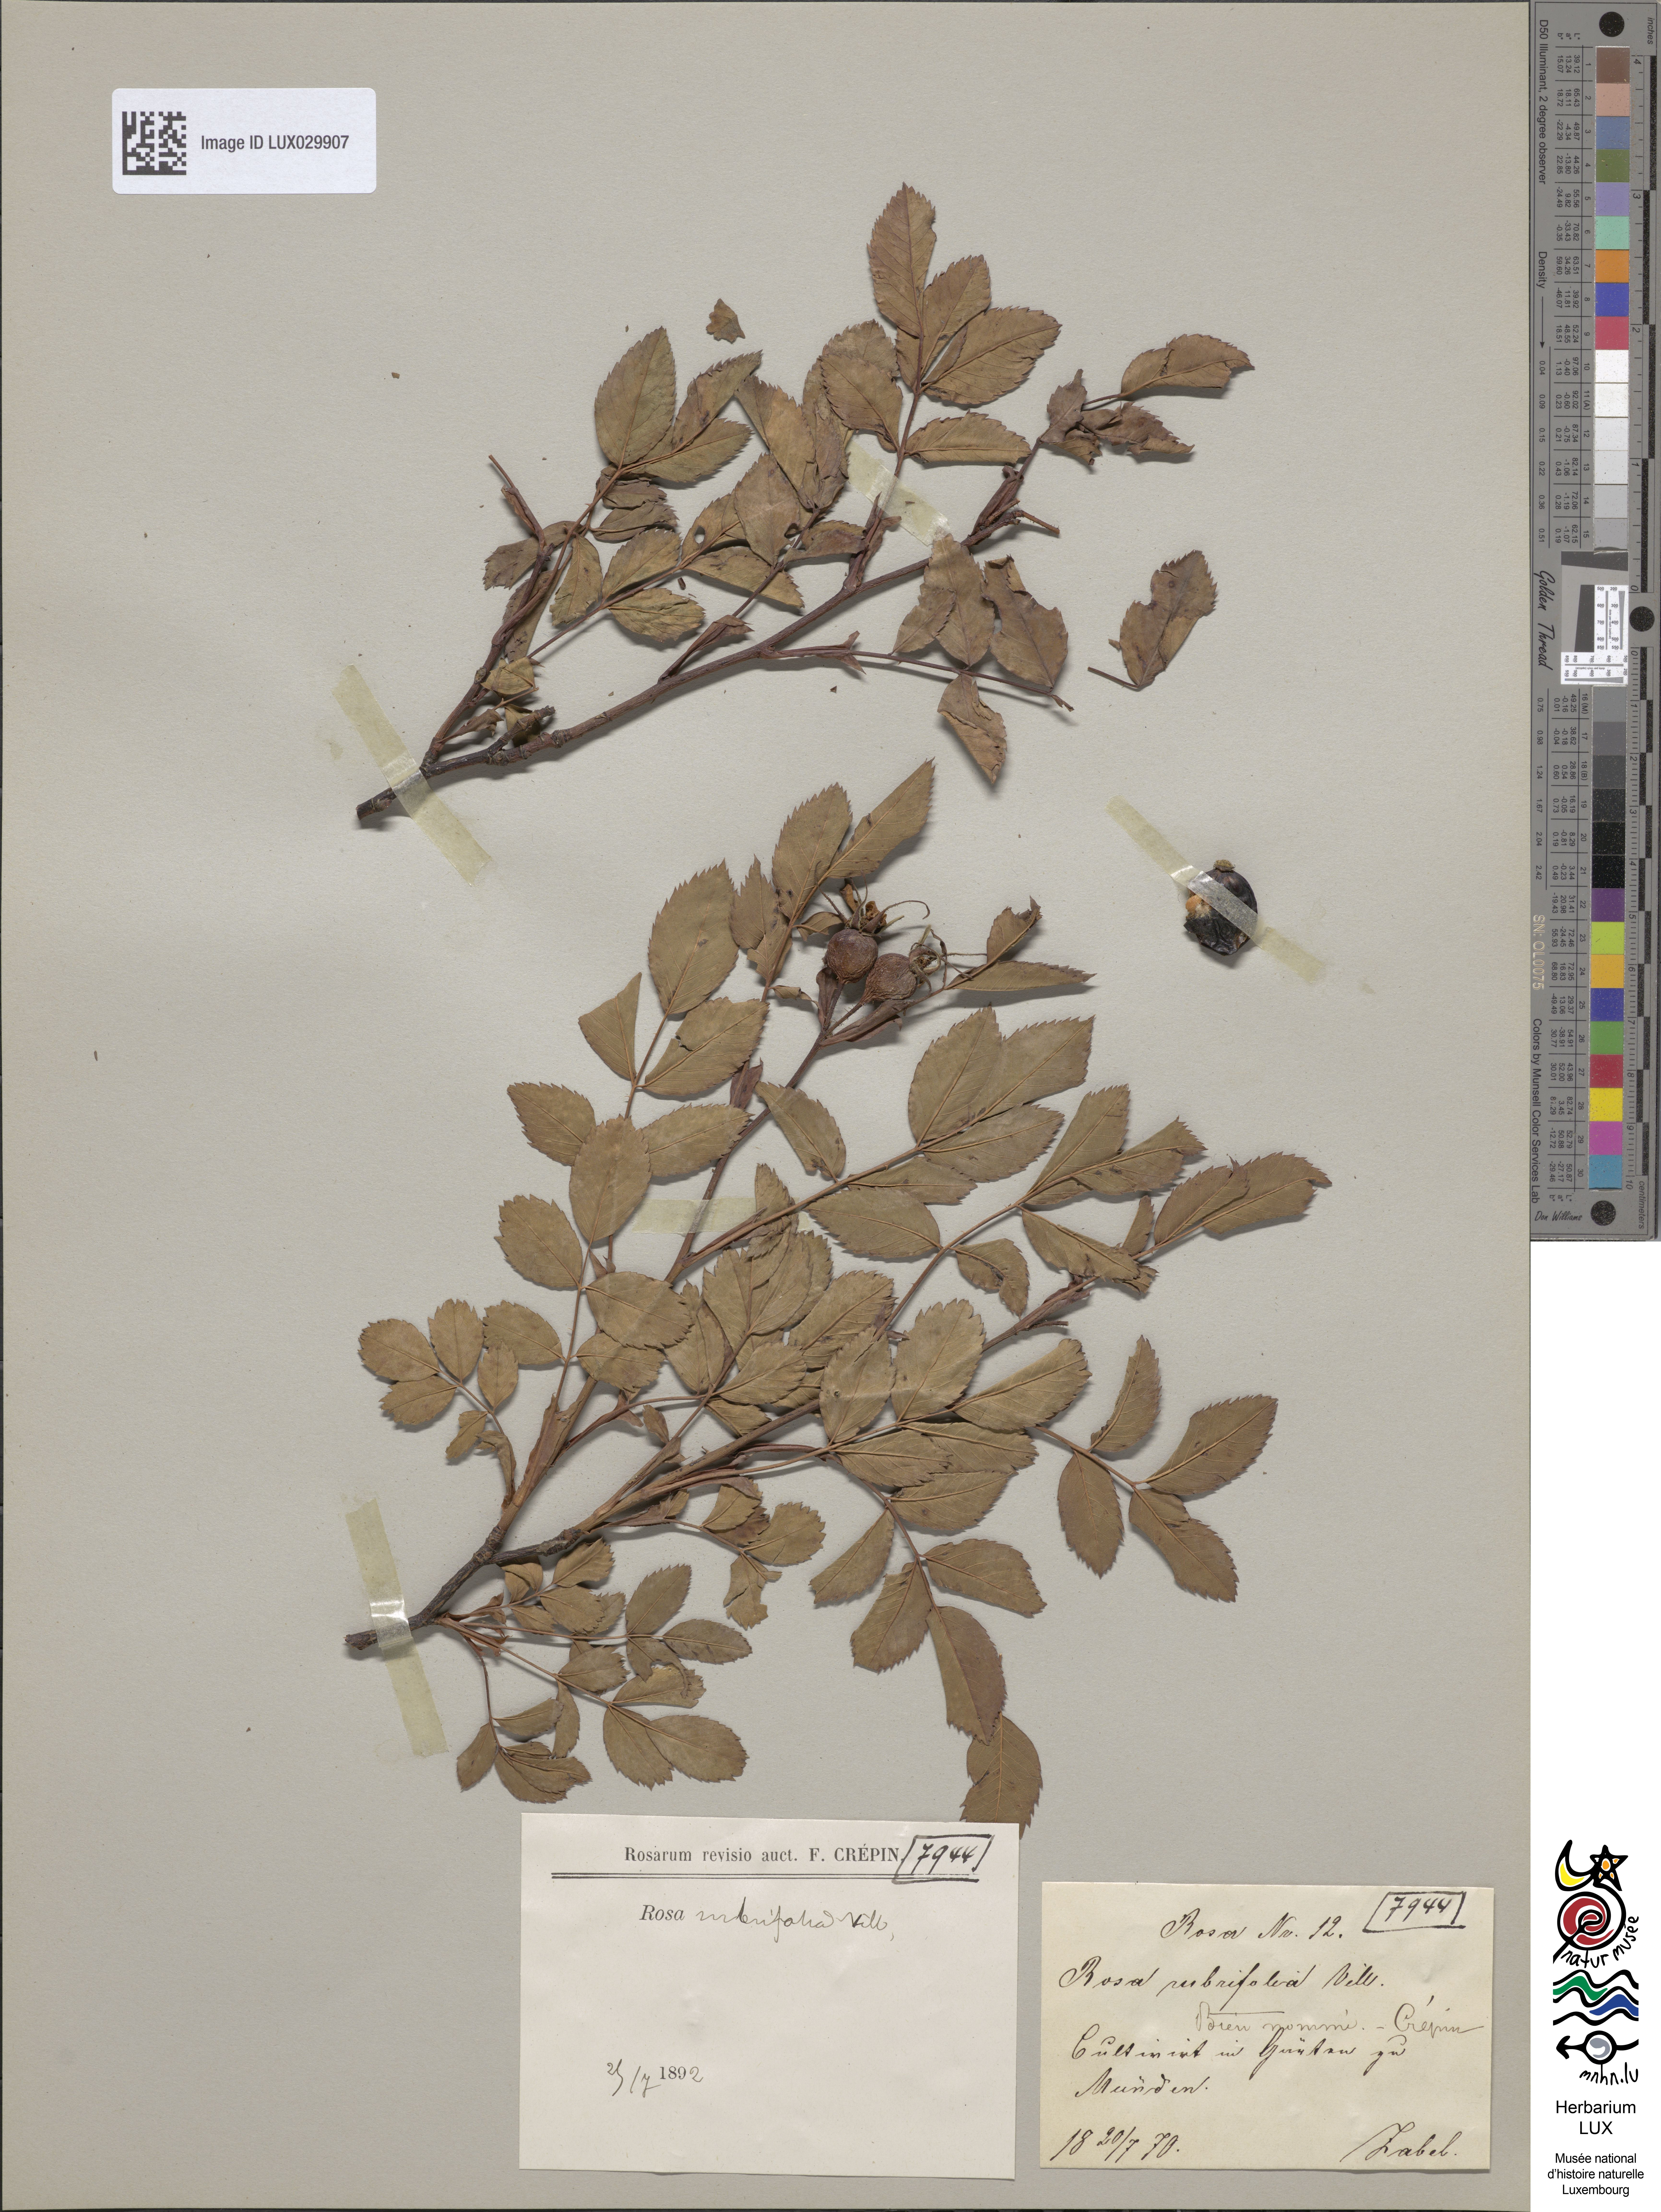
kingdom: Plantae
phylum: Tracheophyta
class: Magnoliopsida
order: Rosales
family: Rosaceae
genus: Rosa
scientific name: Rosa glauca
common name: Redleaf rose
